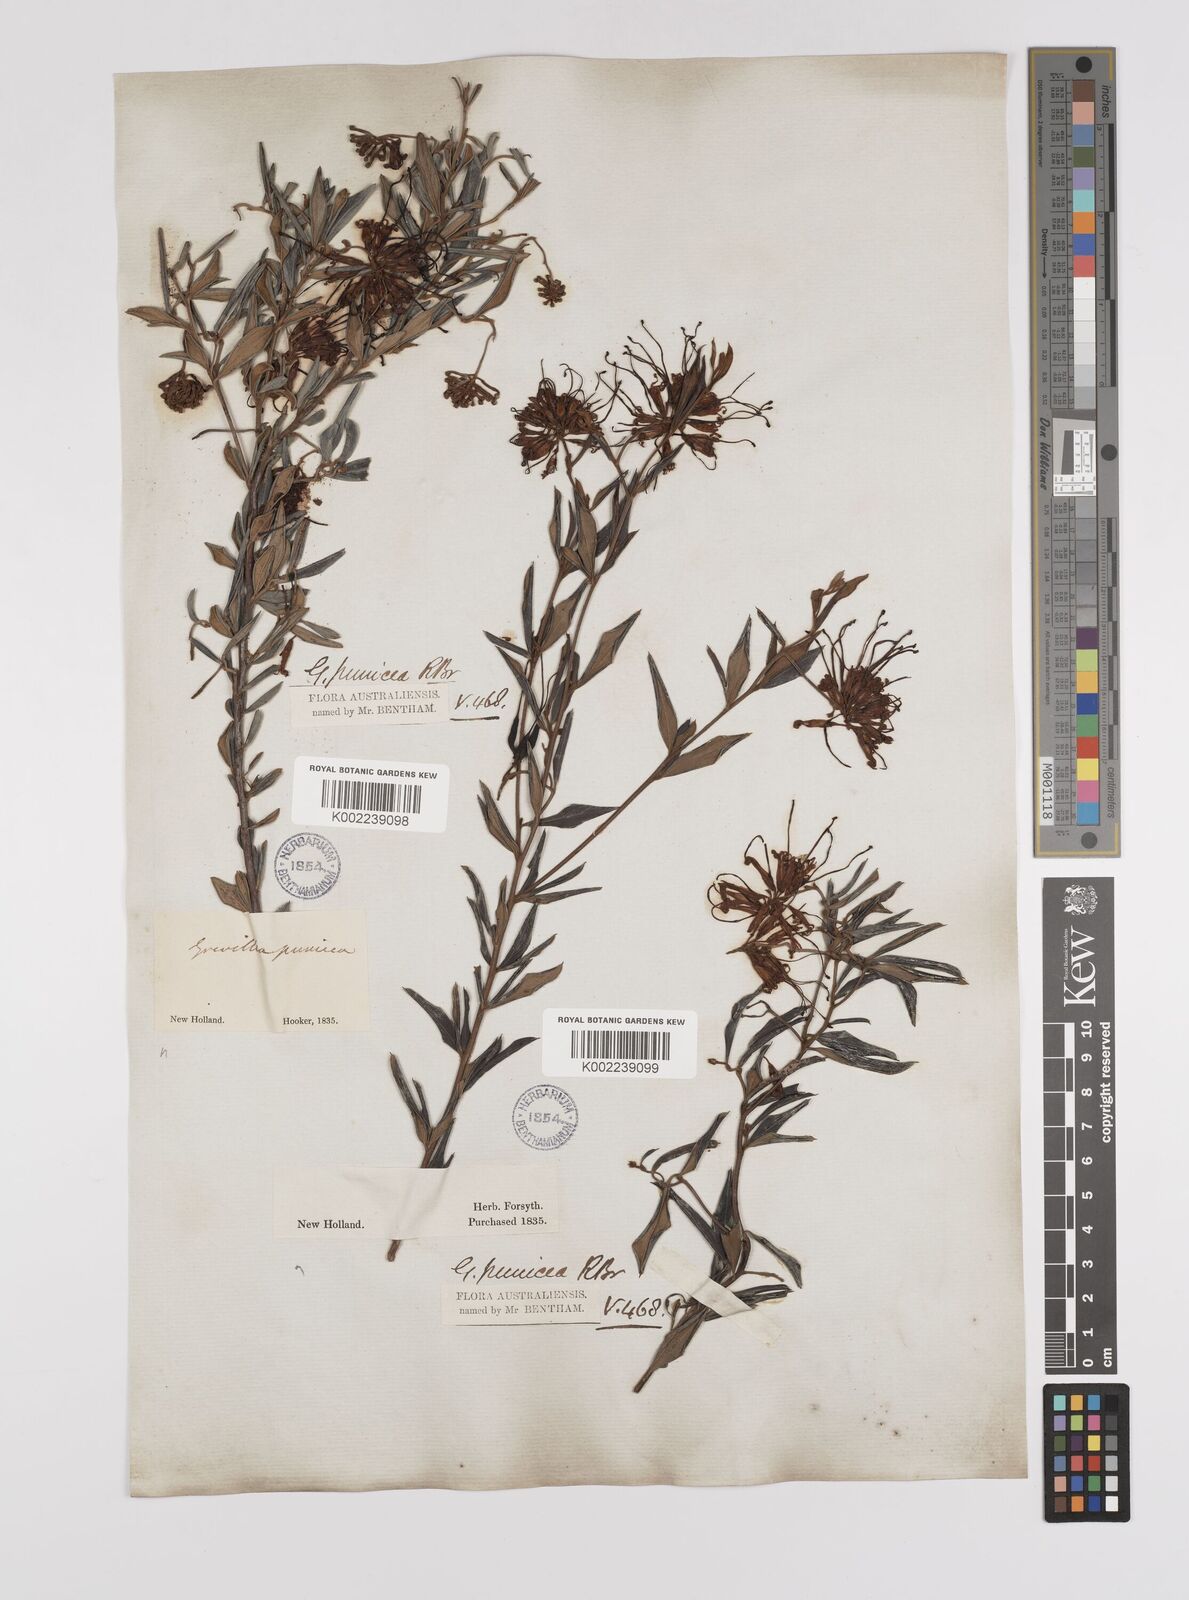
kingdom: Plantae
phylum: Tracheophyta
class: Magnoliopsida
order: Proteales
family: Proteaceae
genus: Grevillea
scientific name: Grevillea speciosa
